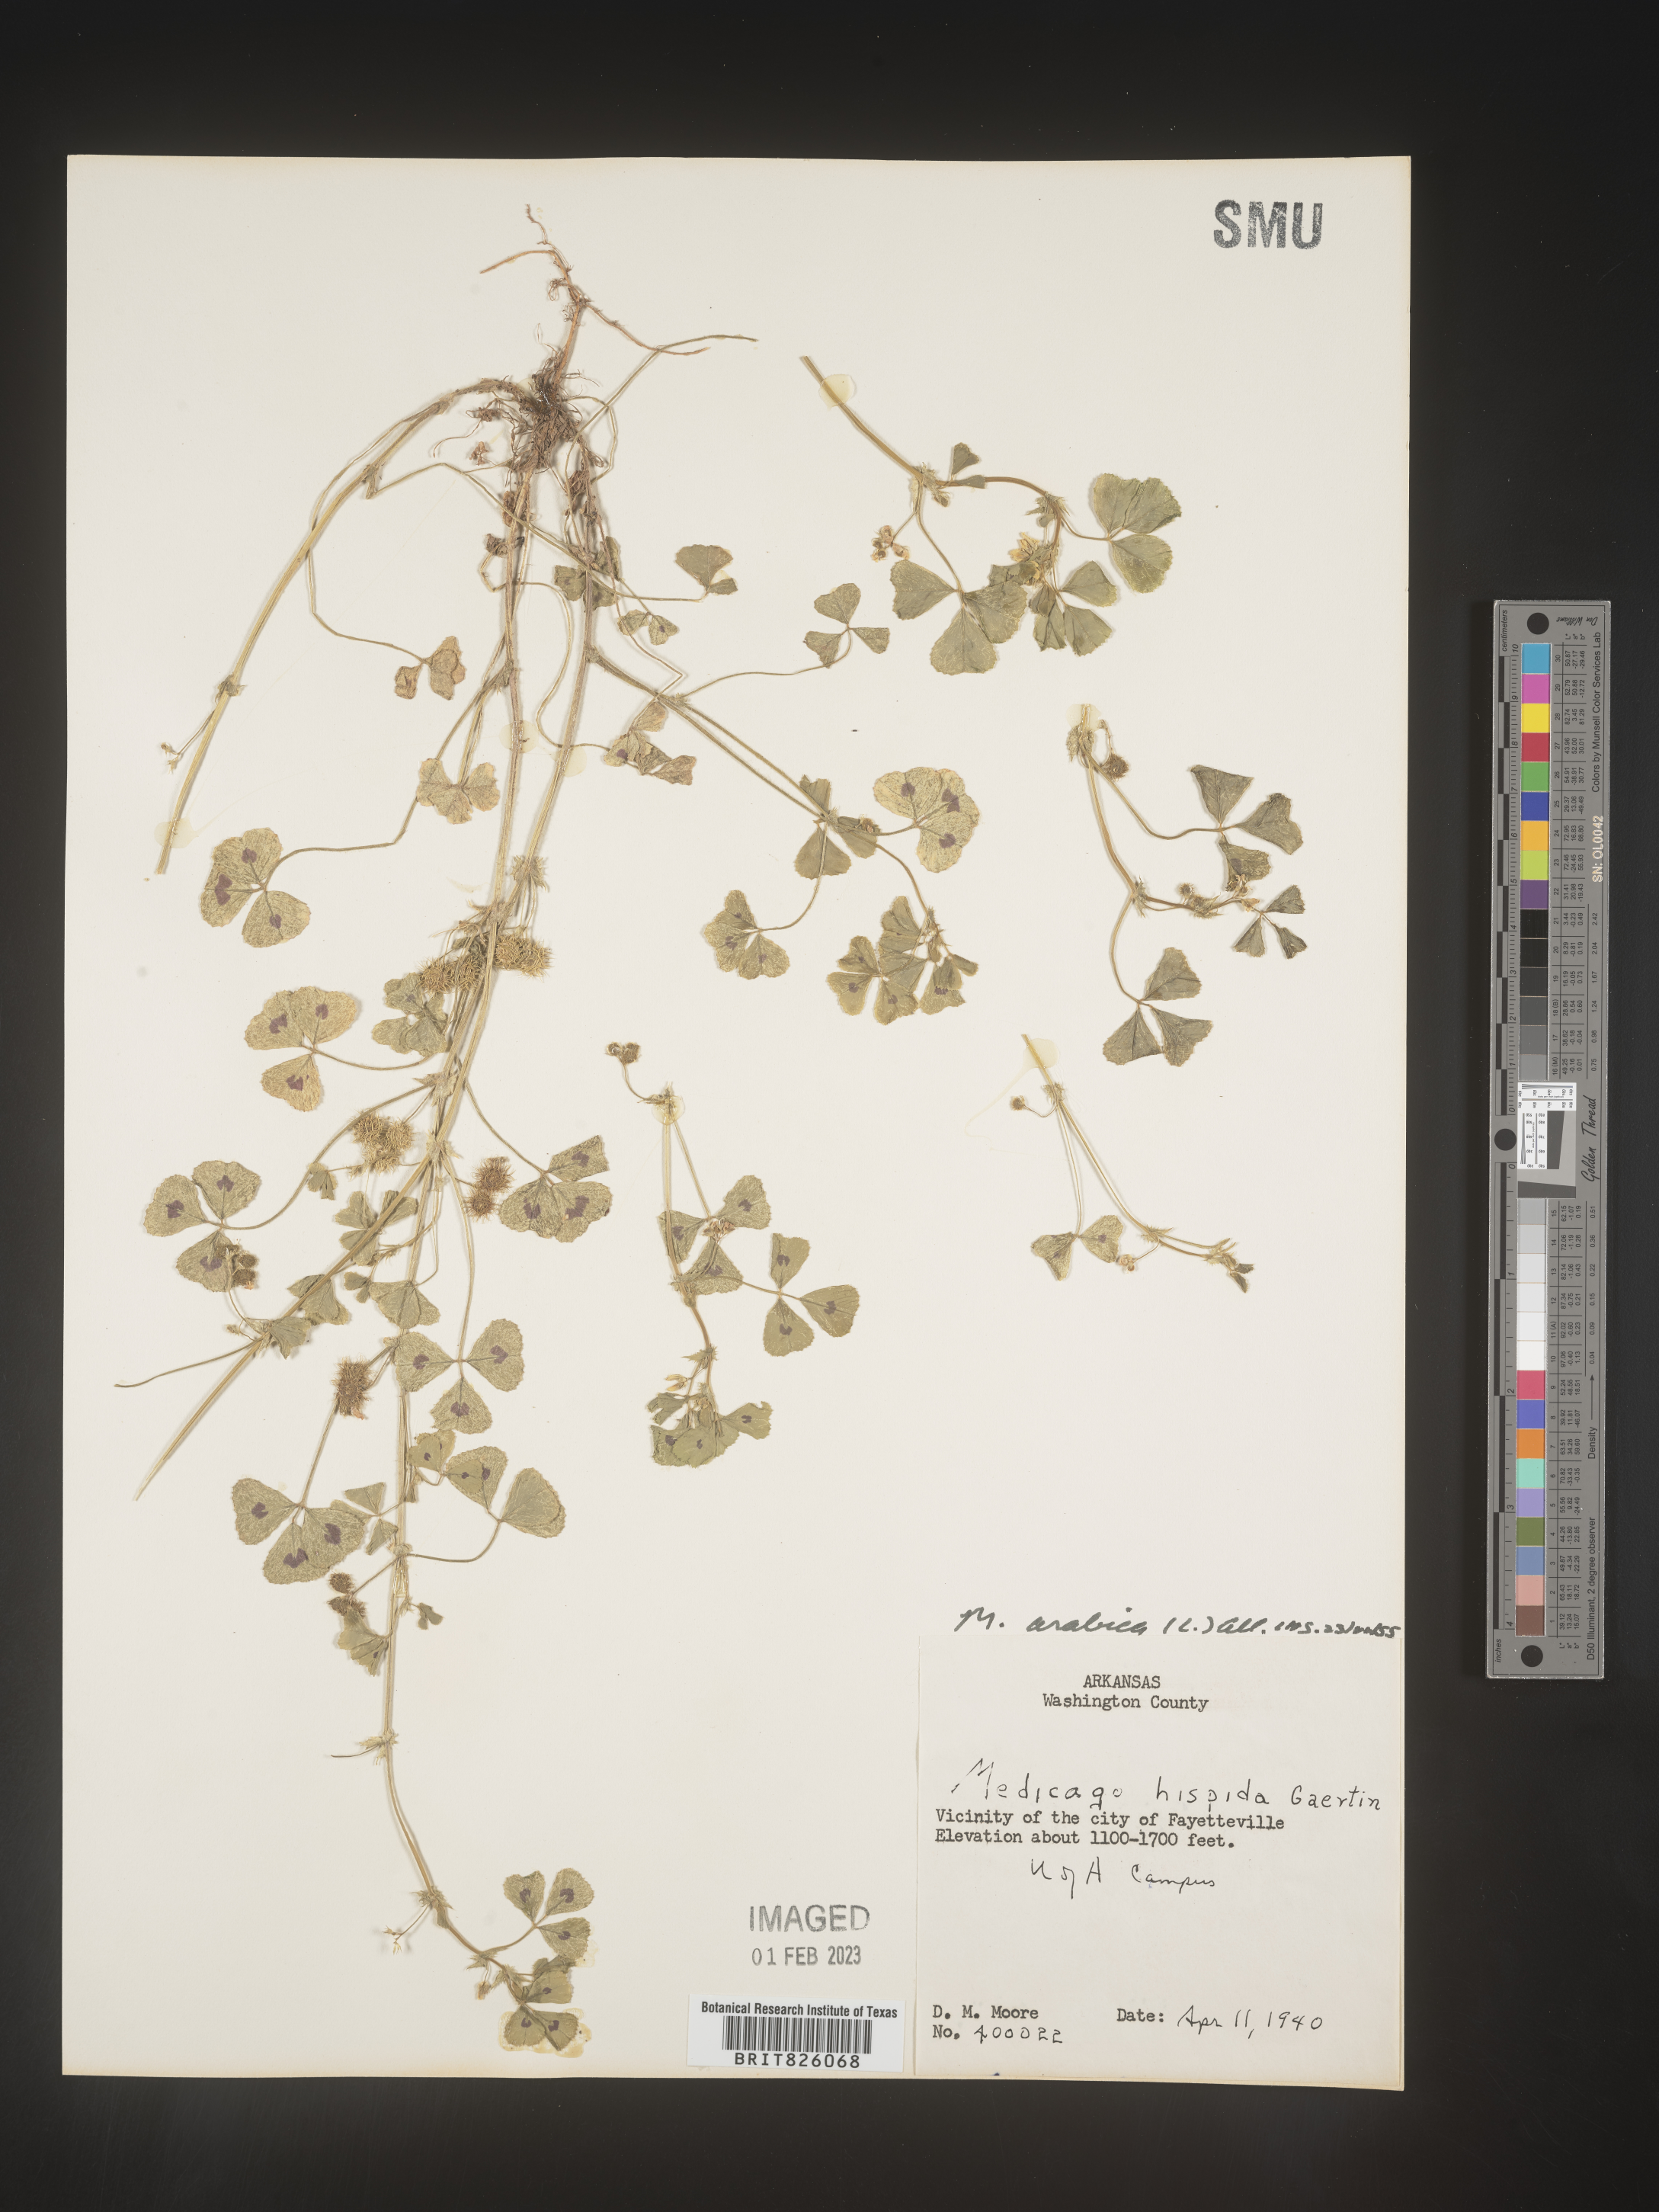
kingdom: Plantae
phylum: Tracheophyta
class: Magnoliopsida
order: Fabales
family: Fabaceae
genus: Medicago
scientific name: Medicago arabica
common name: Spotted medick
